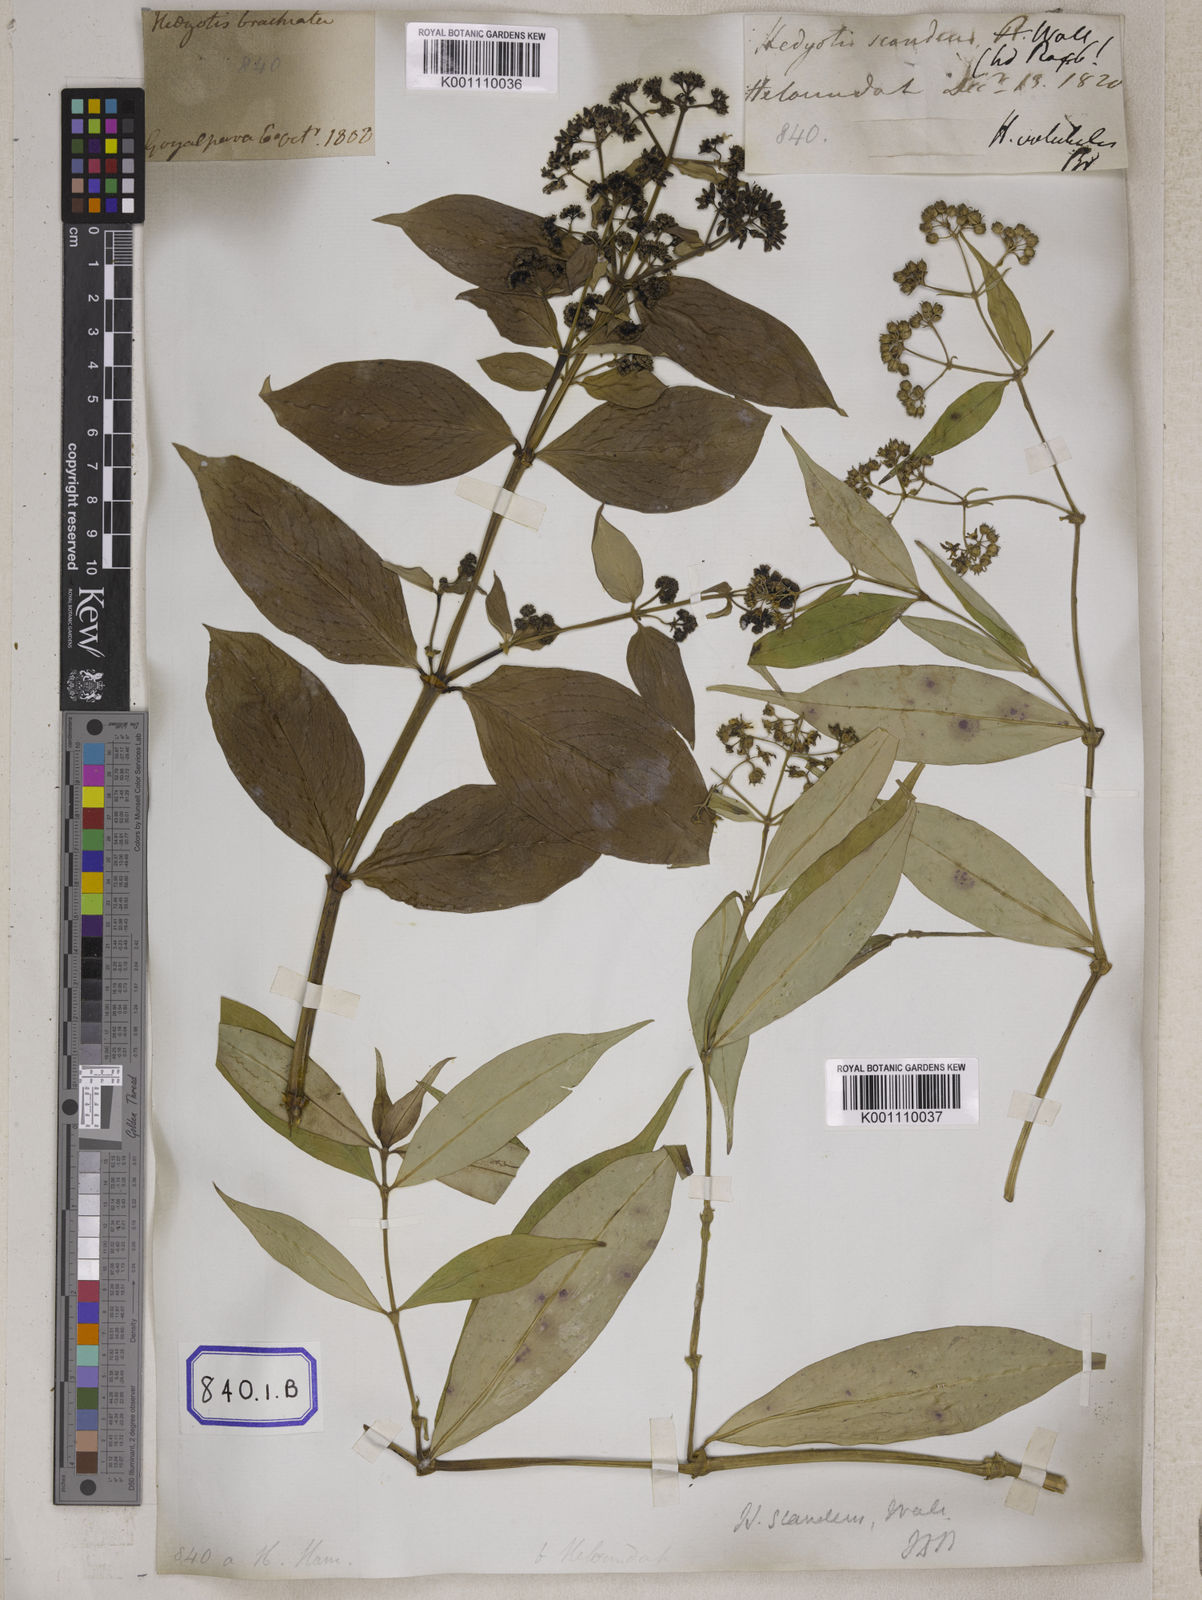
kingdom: Plantae
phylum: Tracheophyta
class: Magnoliopsida
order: Gentianales
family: Rubiaceae
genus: Hedyotis
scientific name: Hedyotis
